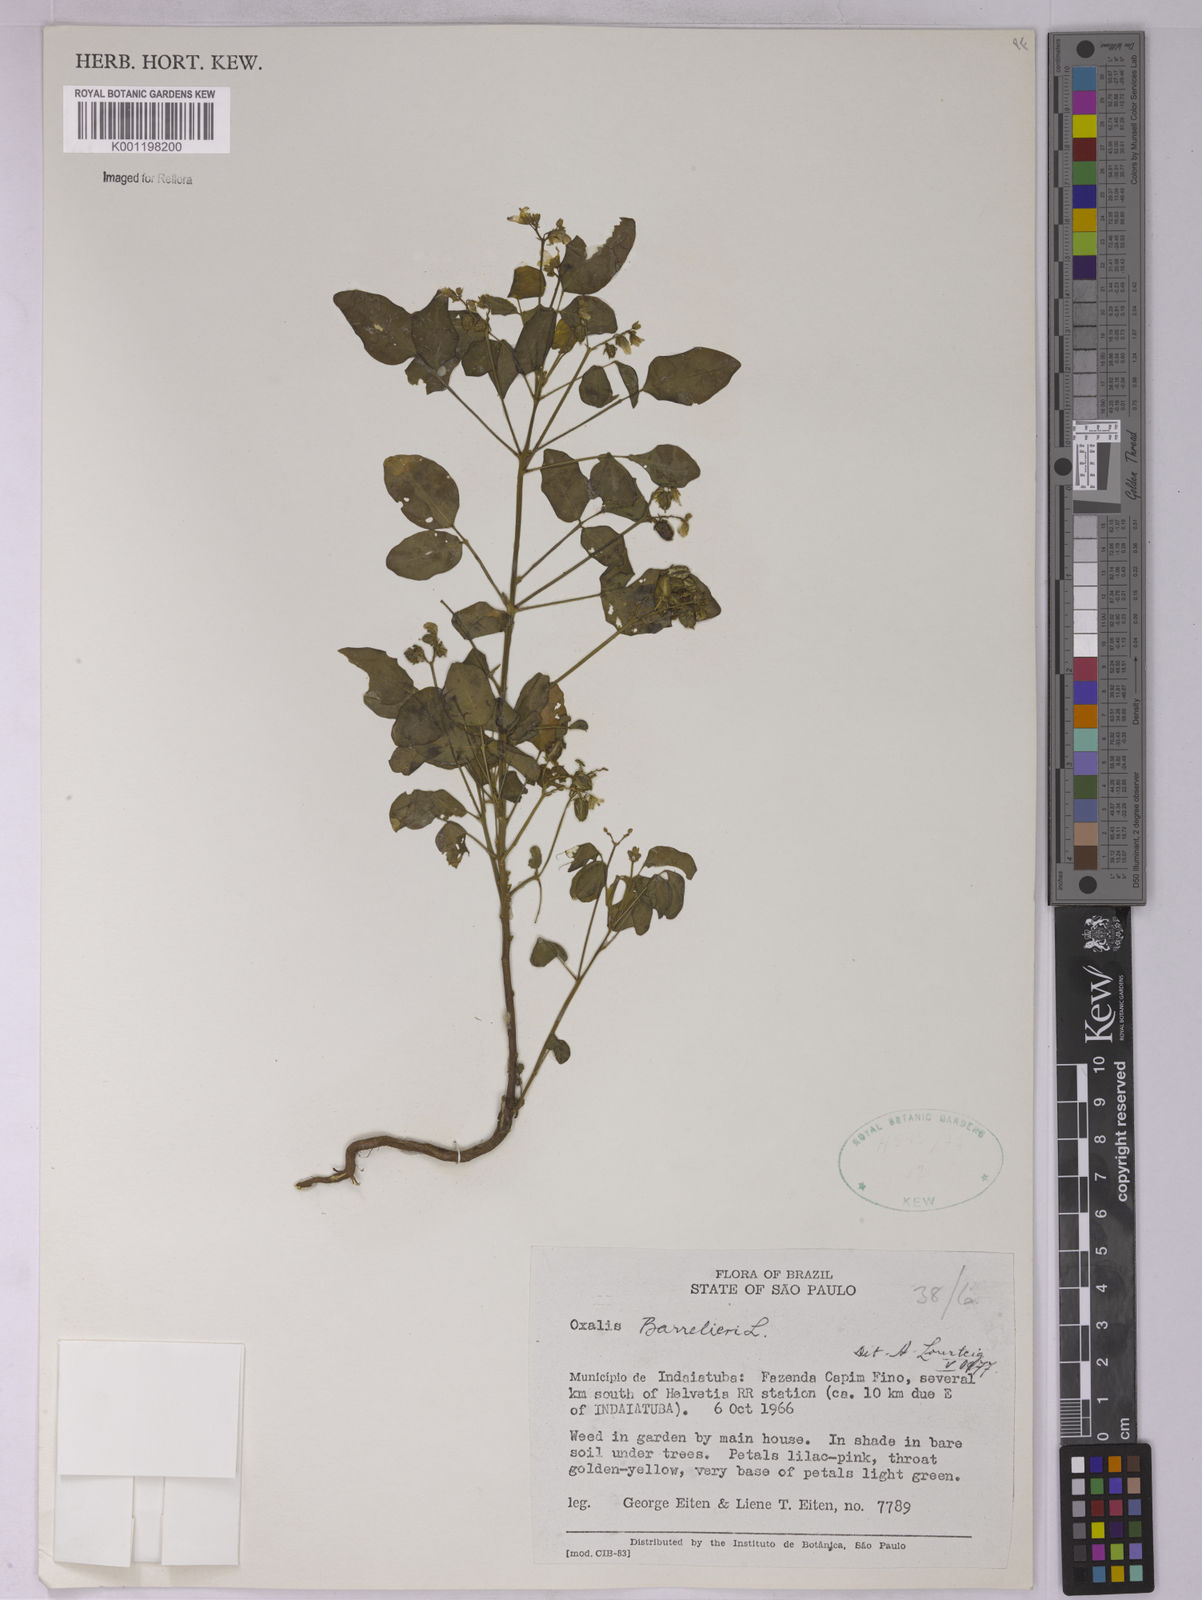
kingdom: Plantae
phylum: Tracheophyta
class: Magnoliopsida
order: Oxalidales
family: Oxalidaceae
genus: Oxalis
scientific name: Oxalis barrelieri
